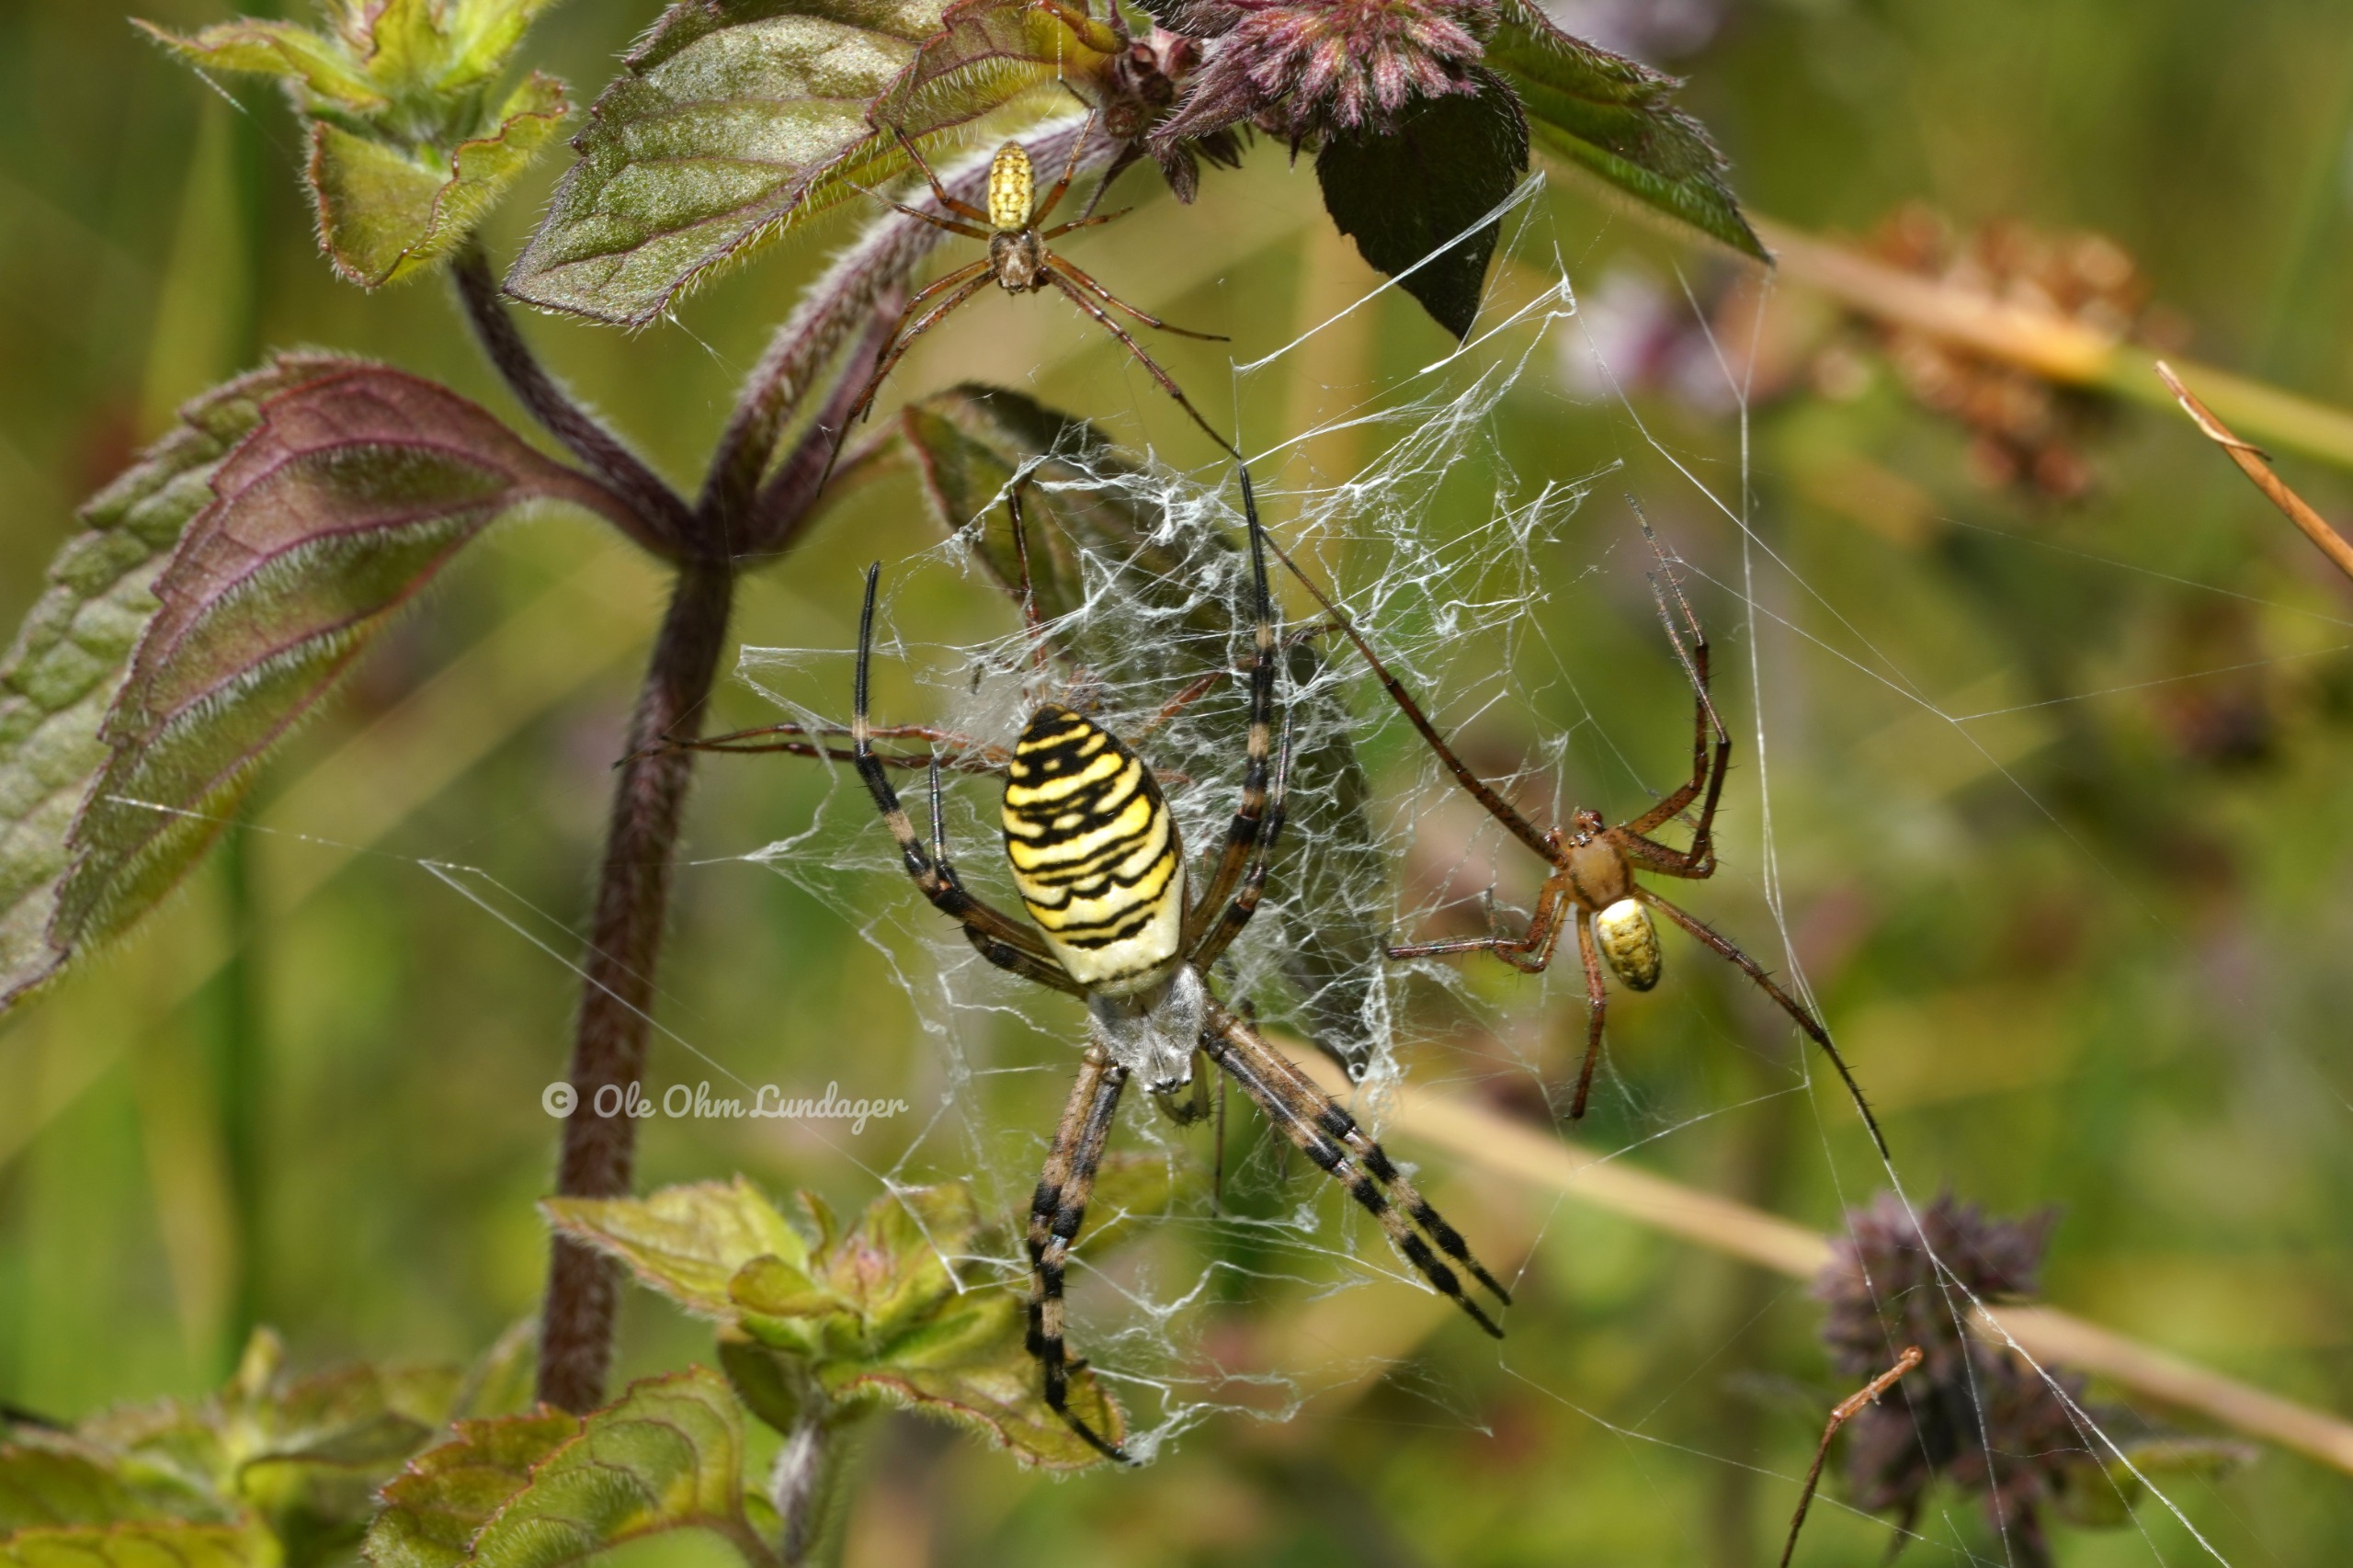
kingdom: Animalia
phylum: Arthropoda
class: Arachnida
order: Araneae
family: Araneidae
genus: Argiope
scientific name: Argiope bruennichi
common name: Hvepseedderkop
